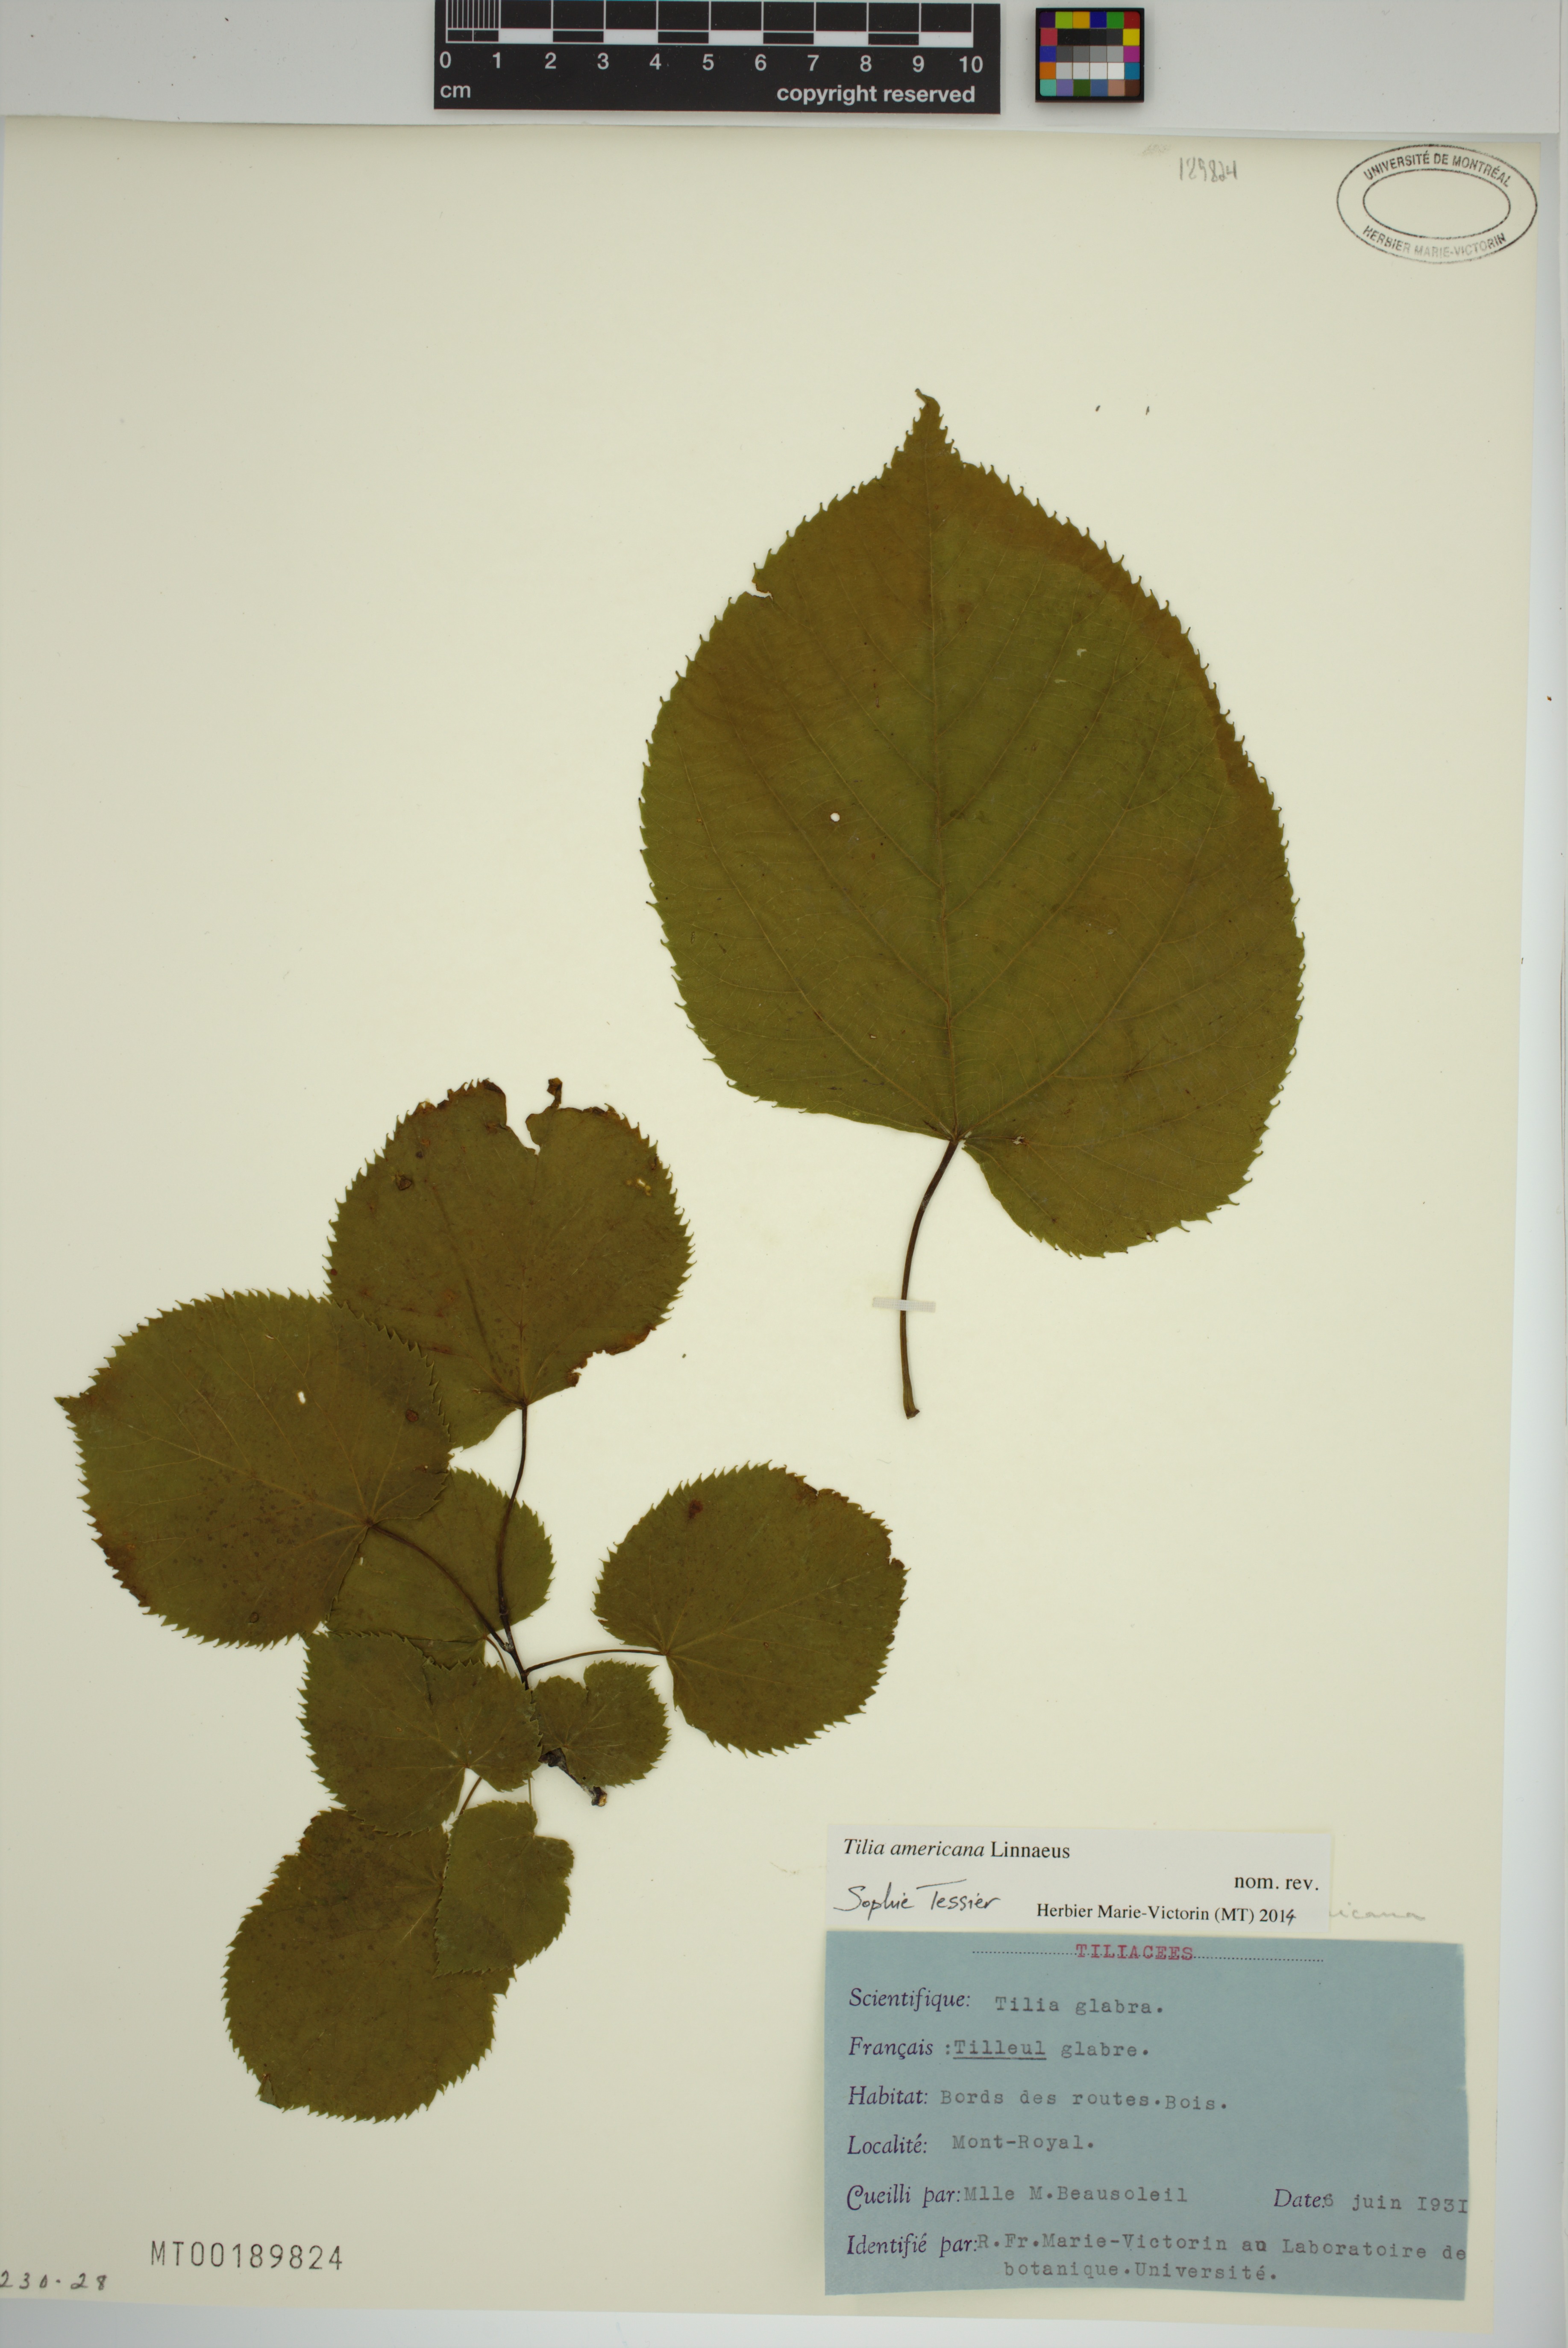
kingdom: Plantae
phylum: Tracheophyta
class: Magnoliopsida
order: Malvales
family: Malvaceae
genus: Tilia
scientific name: Tilia americana
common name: Basswood
